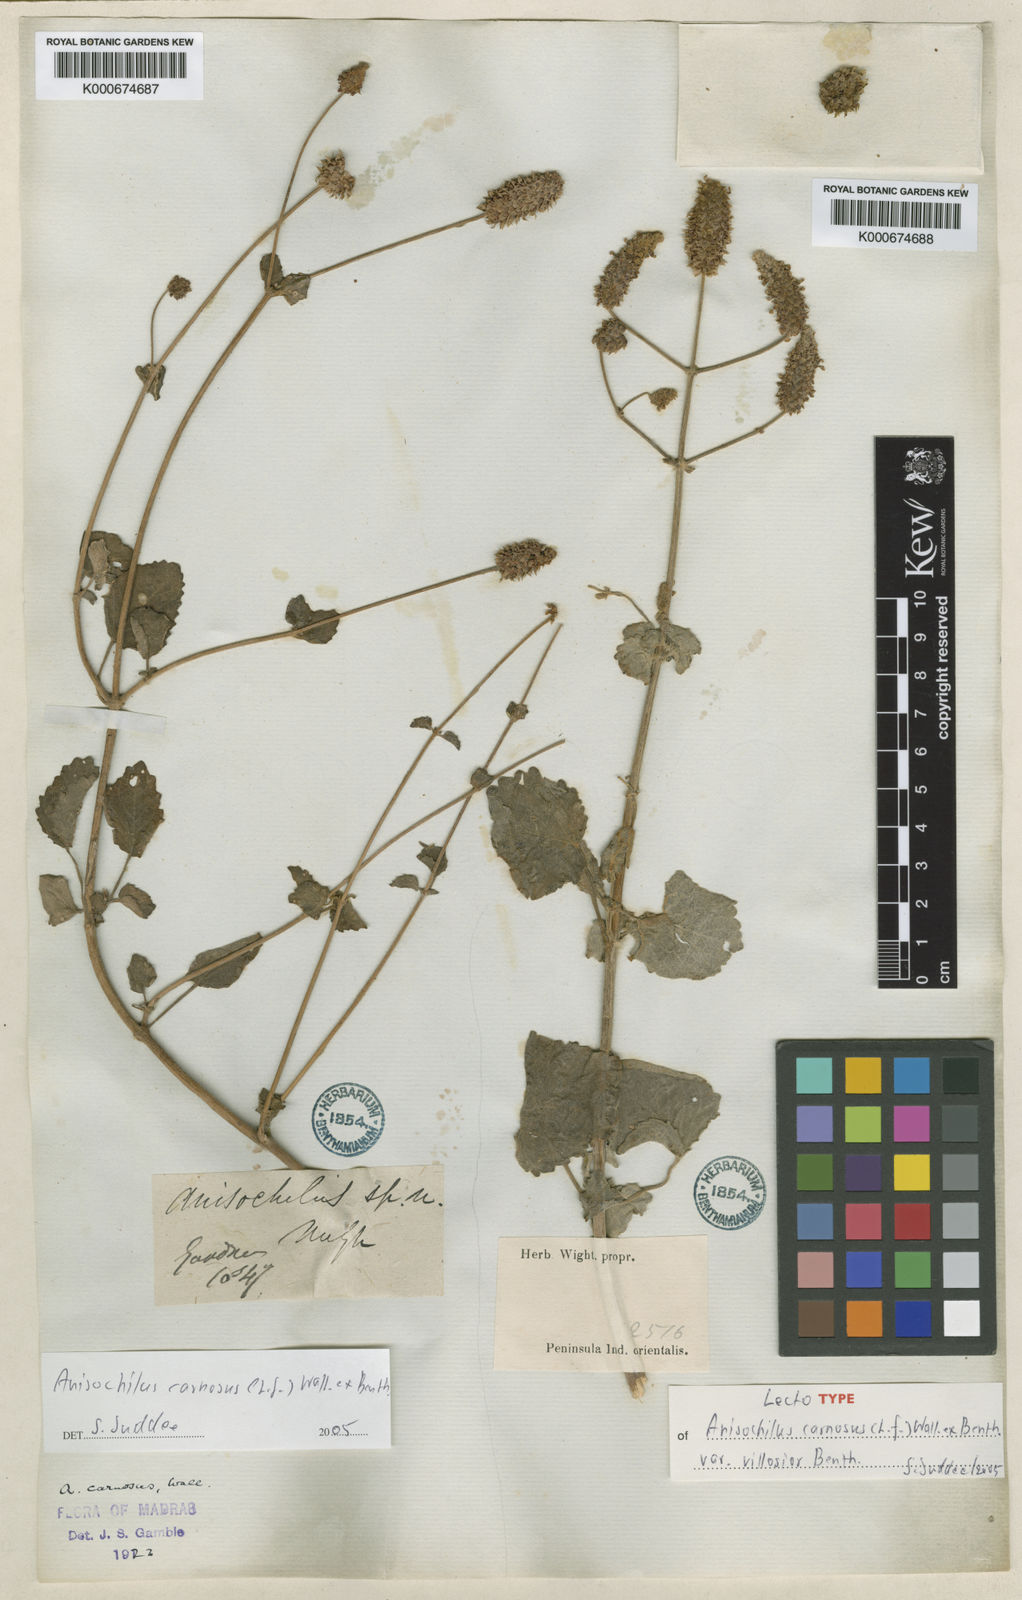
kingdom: Plantae
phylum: Tracheophyta
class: Magnoliopsida
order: Lamiales
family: Lamiaceae
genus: Anisochilus
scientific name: Anisochilus
